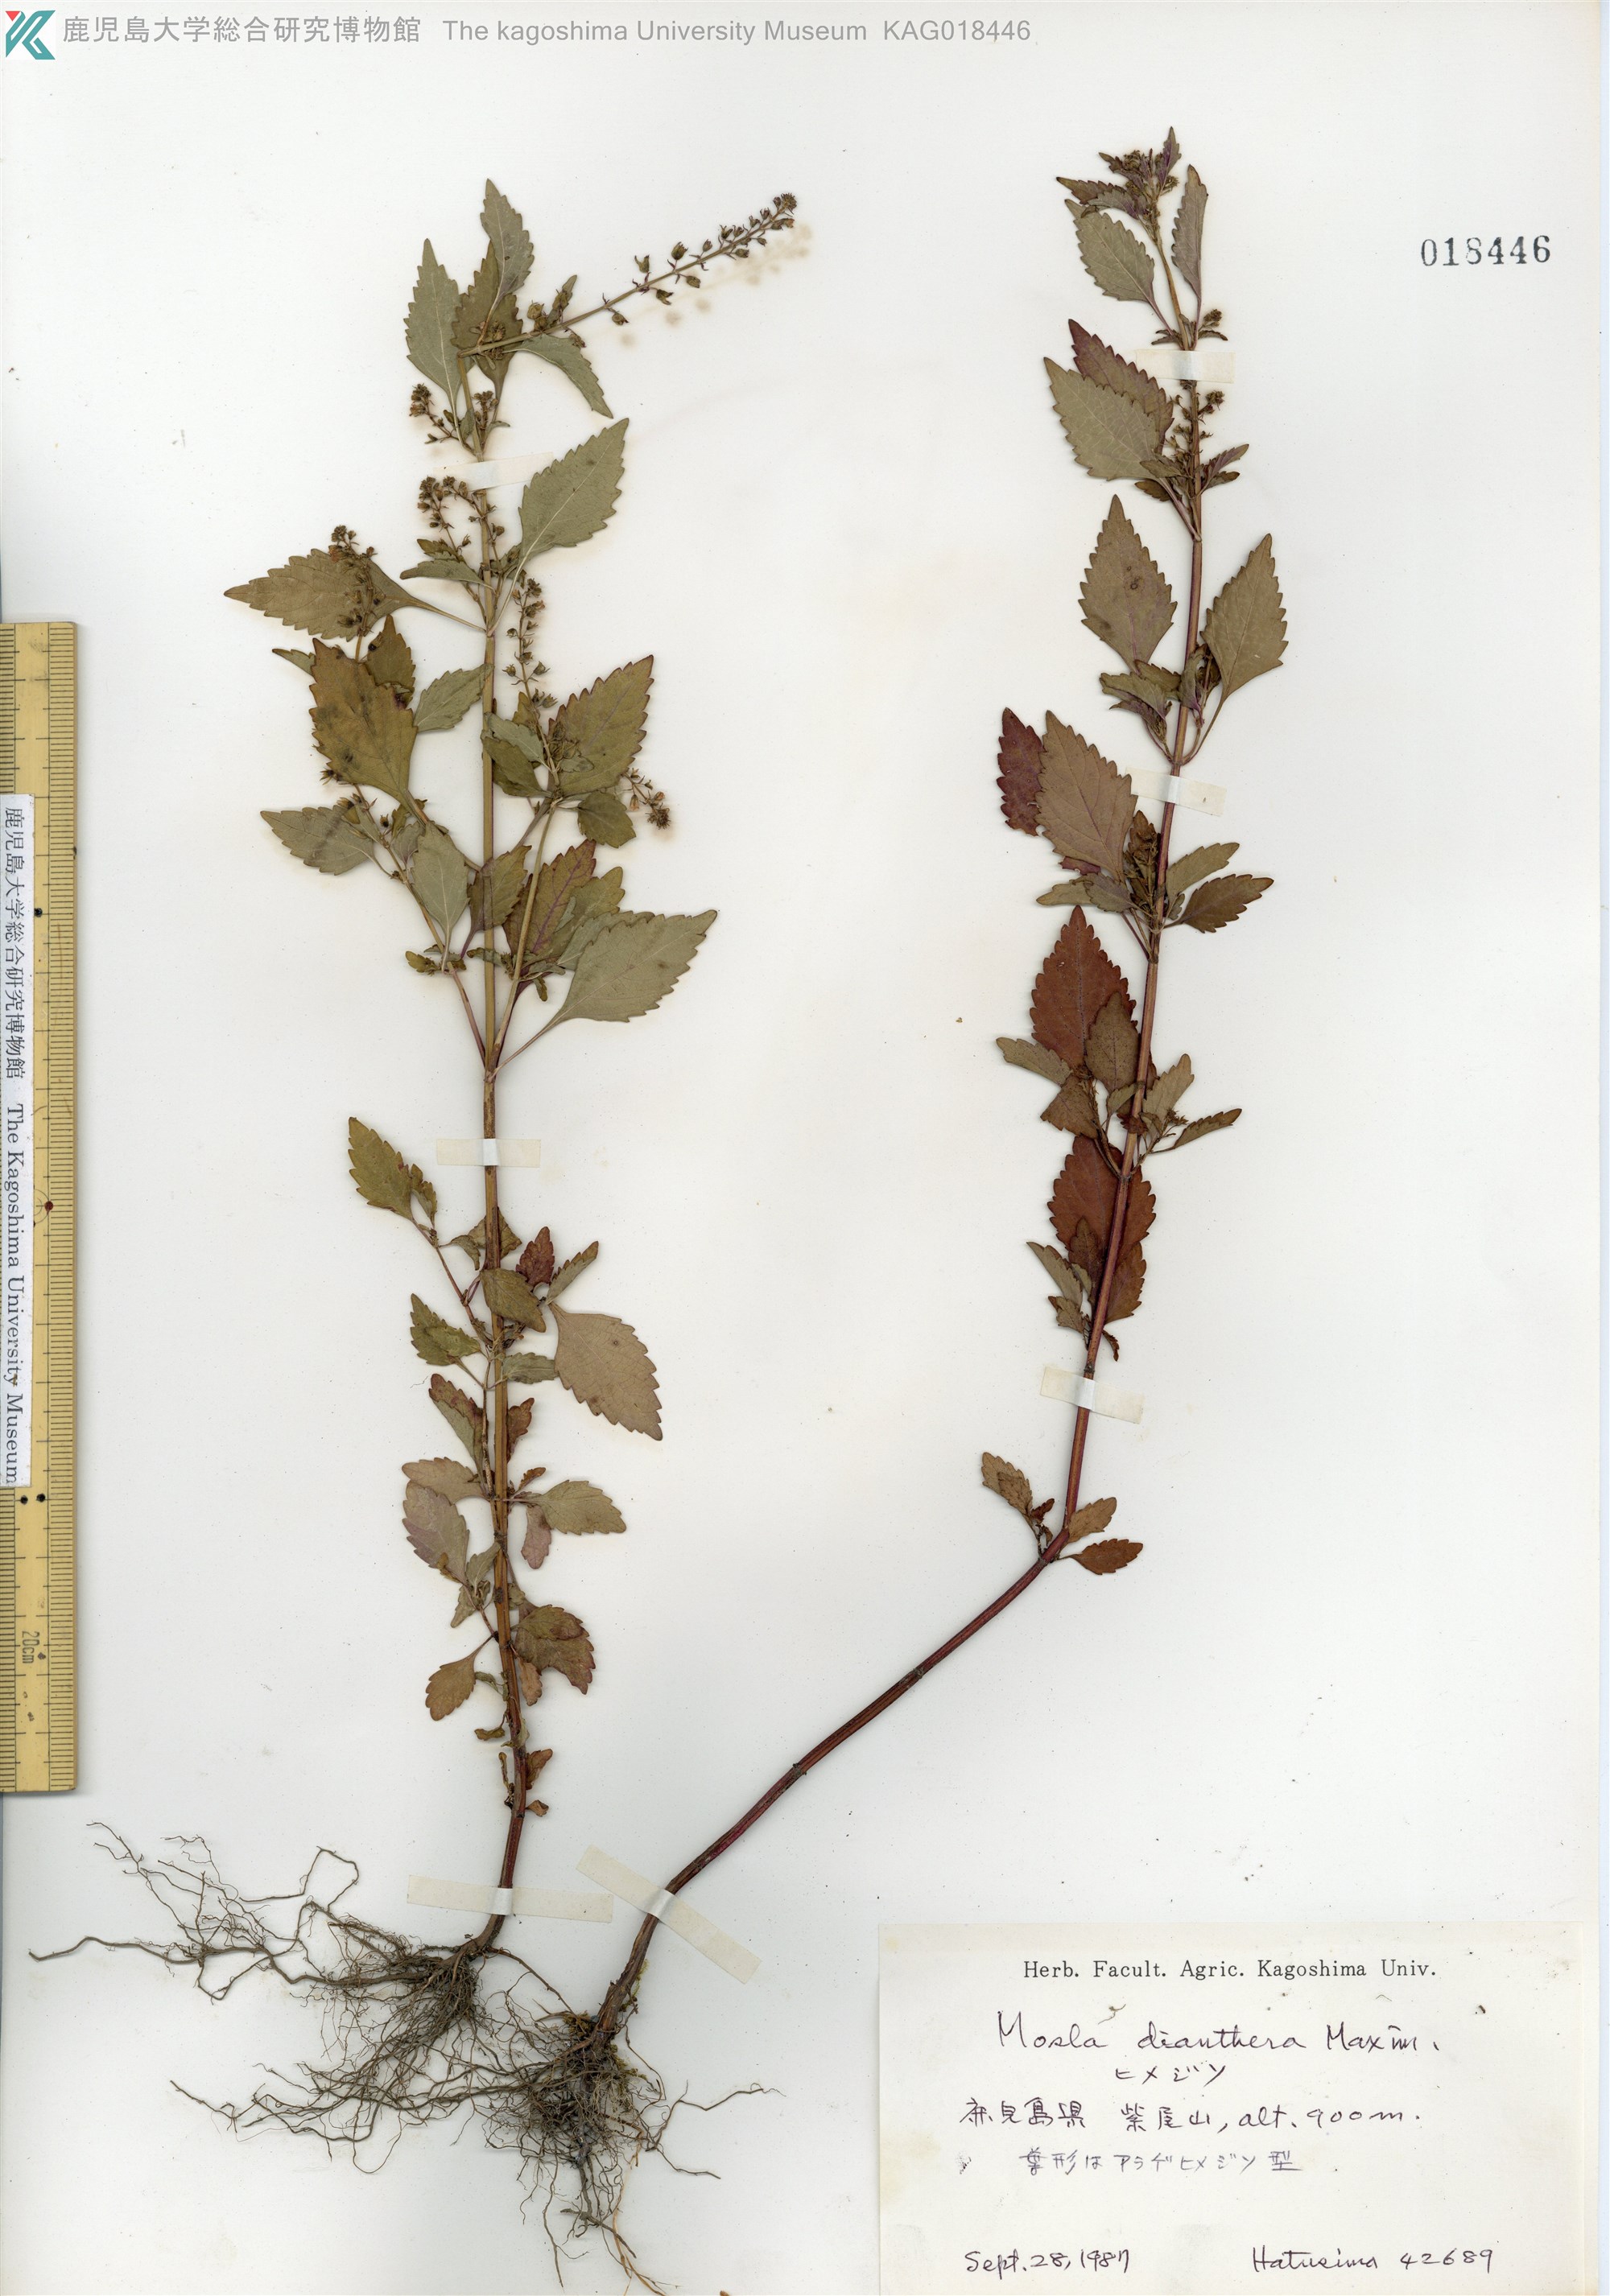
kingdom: Plantae
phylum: Tracheophyta
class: Magnoliopsida
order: Lamiales
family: Lamiaceae
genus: Mosla
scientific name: Mosla dianthera
